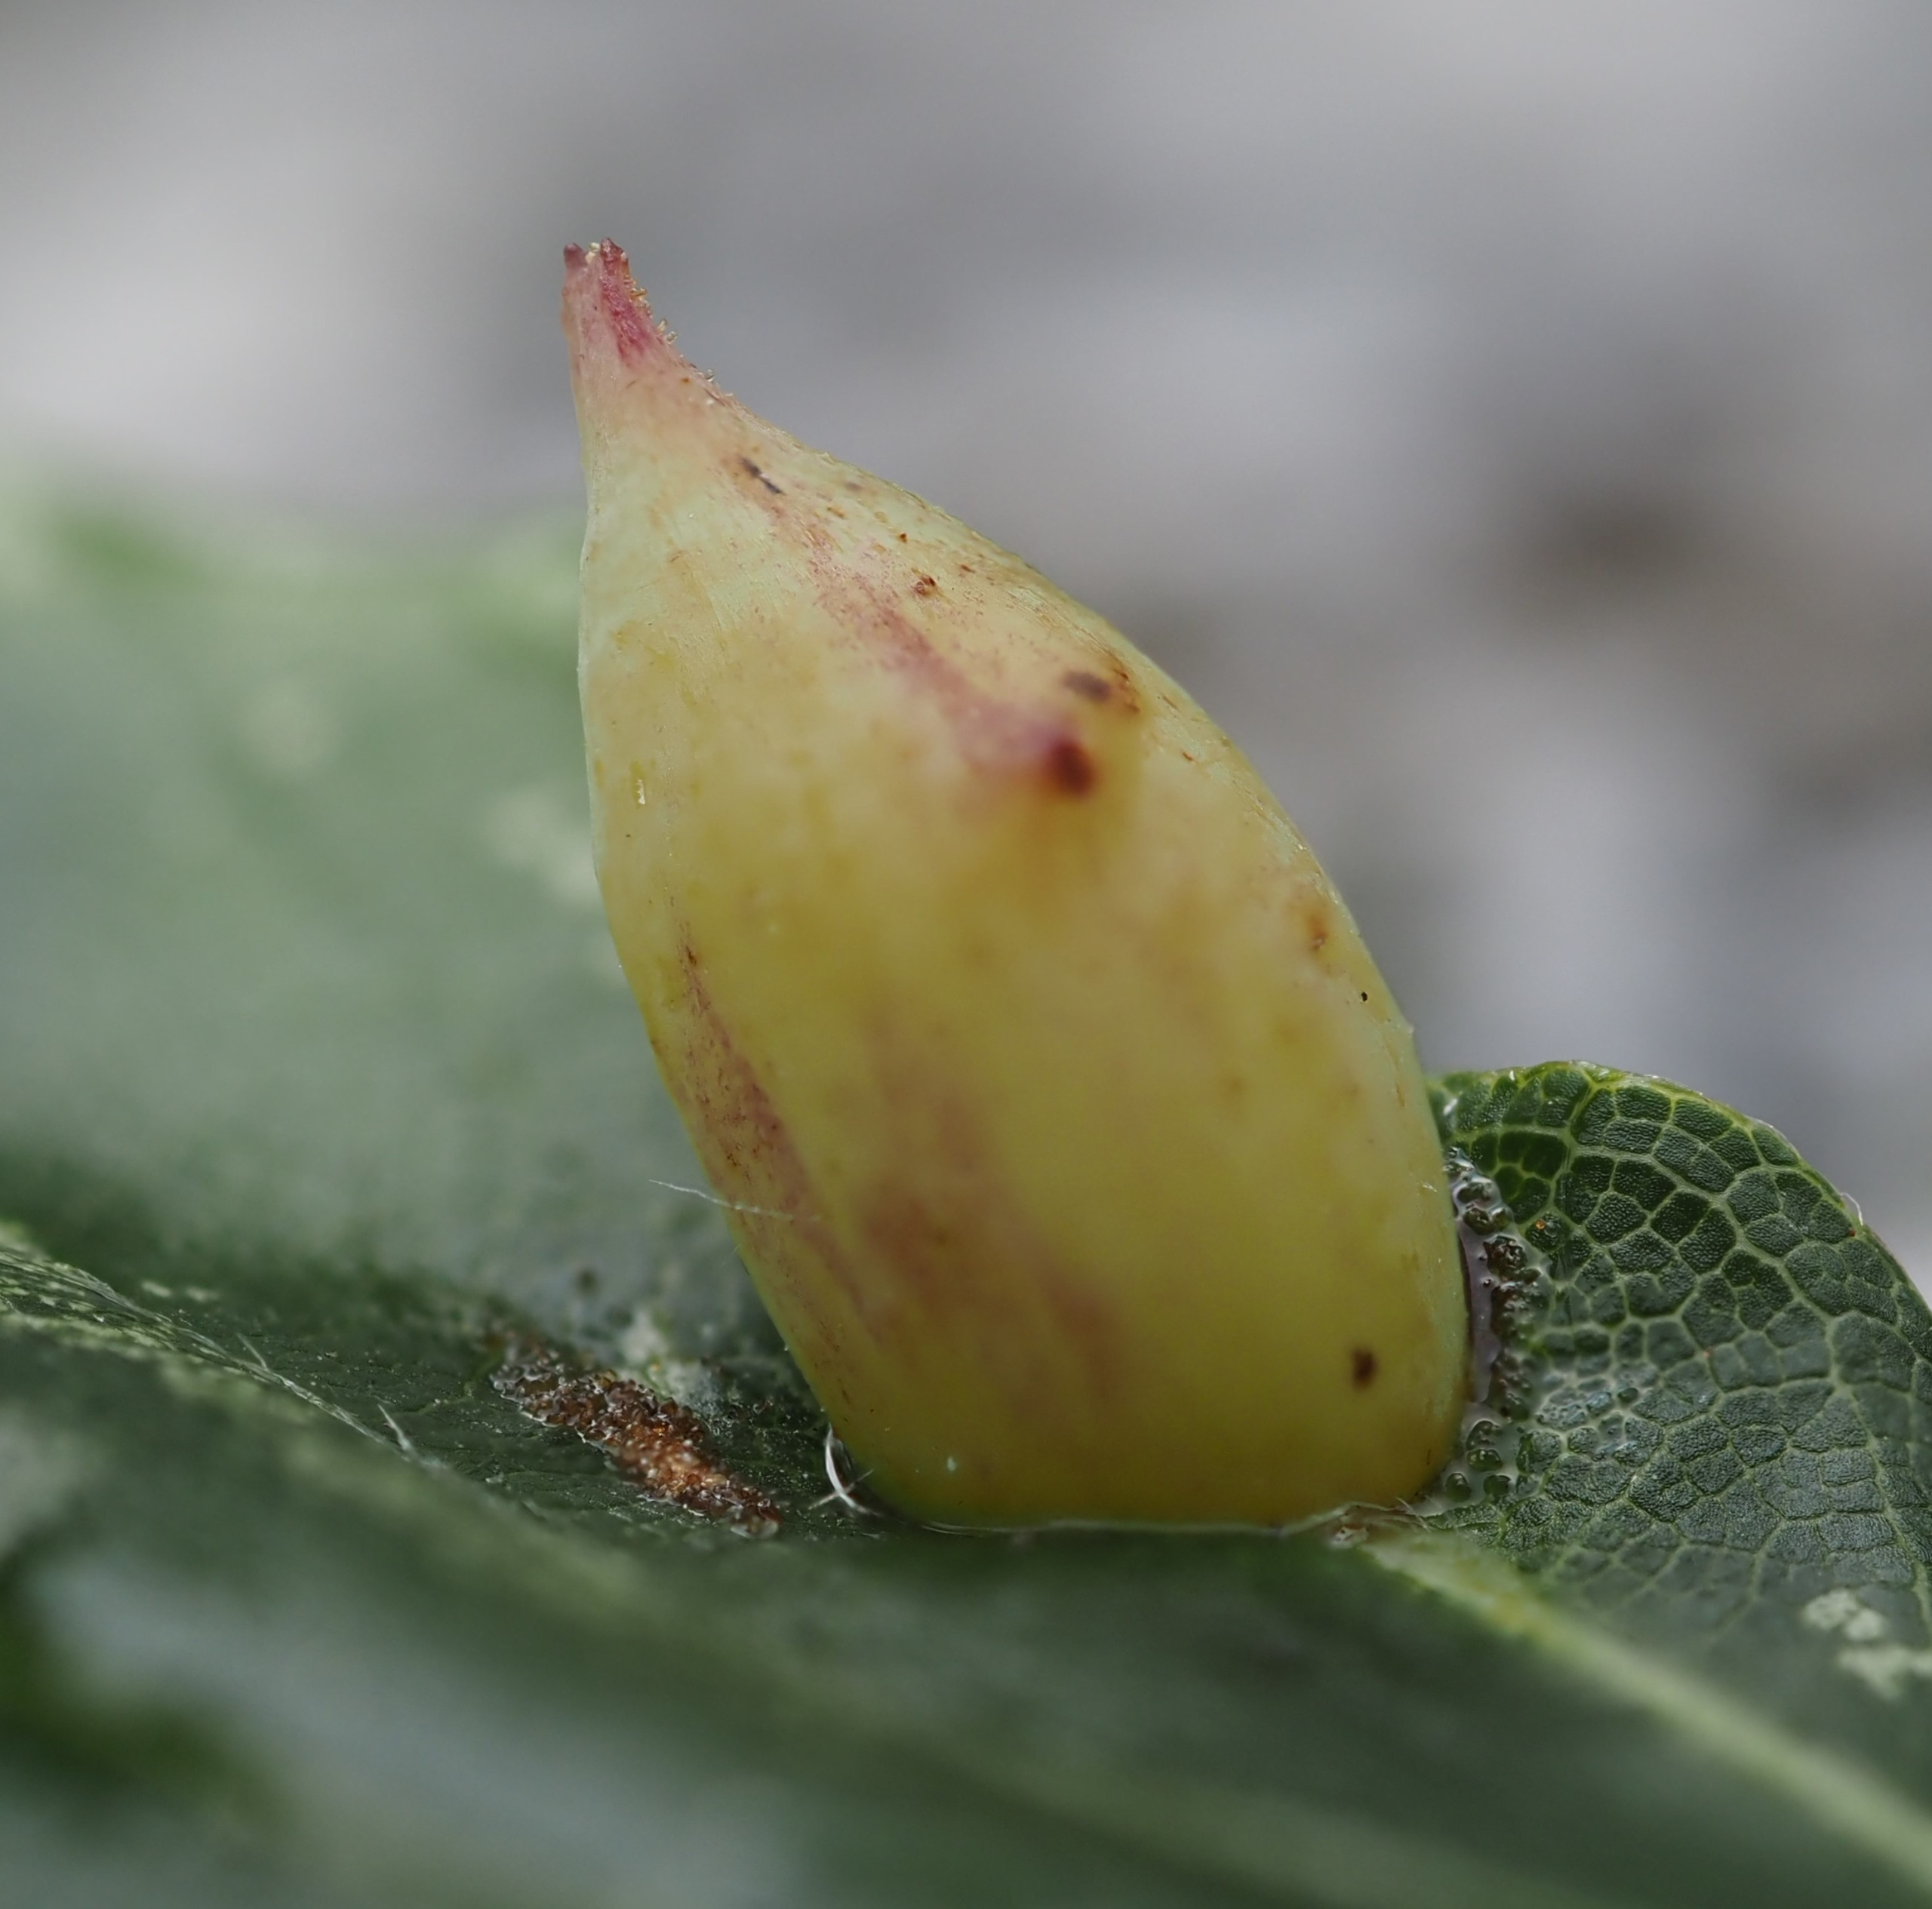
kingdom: Animalia
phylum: Arthropoda
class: Insecta
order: Diptera
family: Cecidomyiidae
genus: Mikiola
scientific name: Mikiola fagi
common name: Bøgegalmyg
